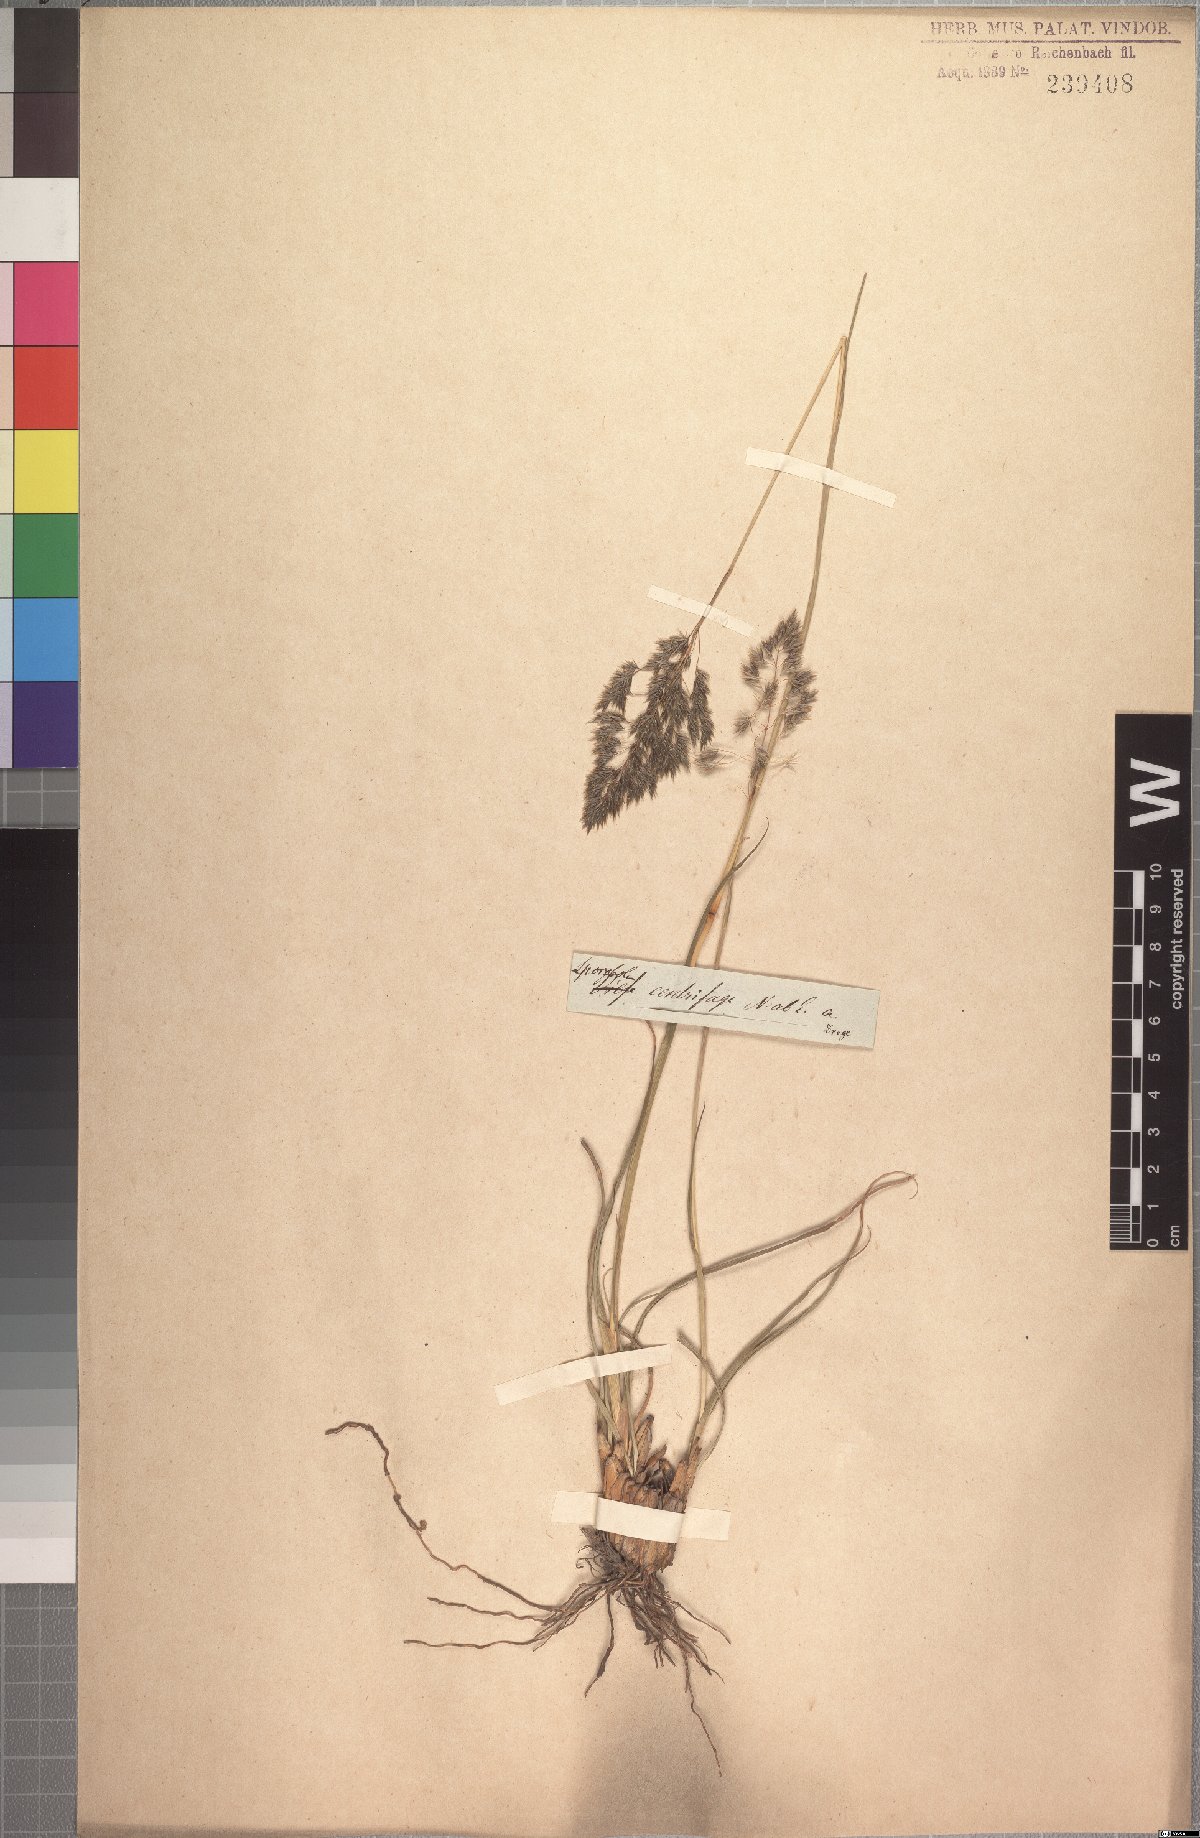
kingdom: Plantae
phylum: Tracheophyta
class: Liliopsida
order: Poales
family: Poaceae
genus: Sporobolus
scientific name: Sporobolus centrifugus
